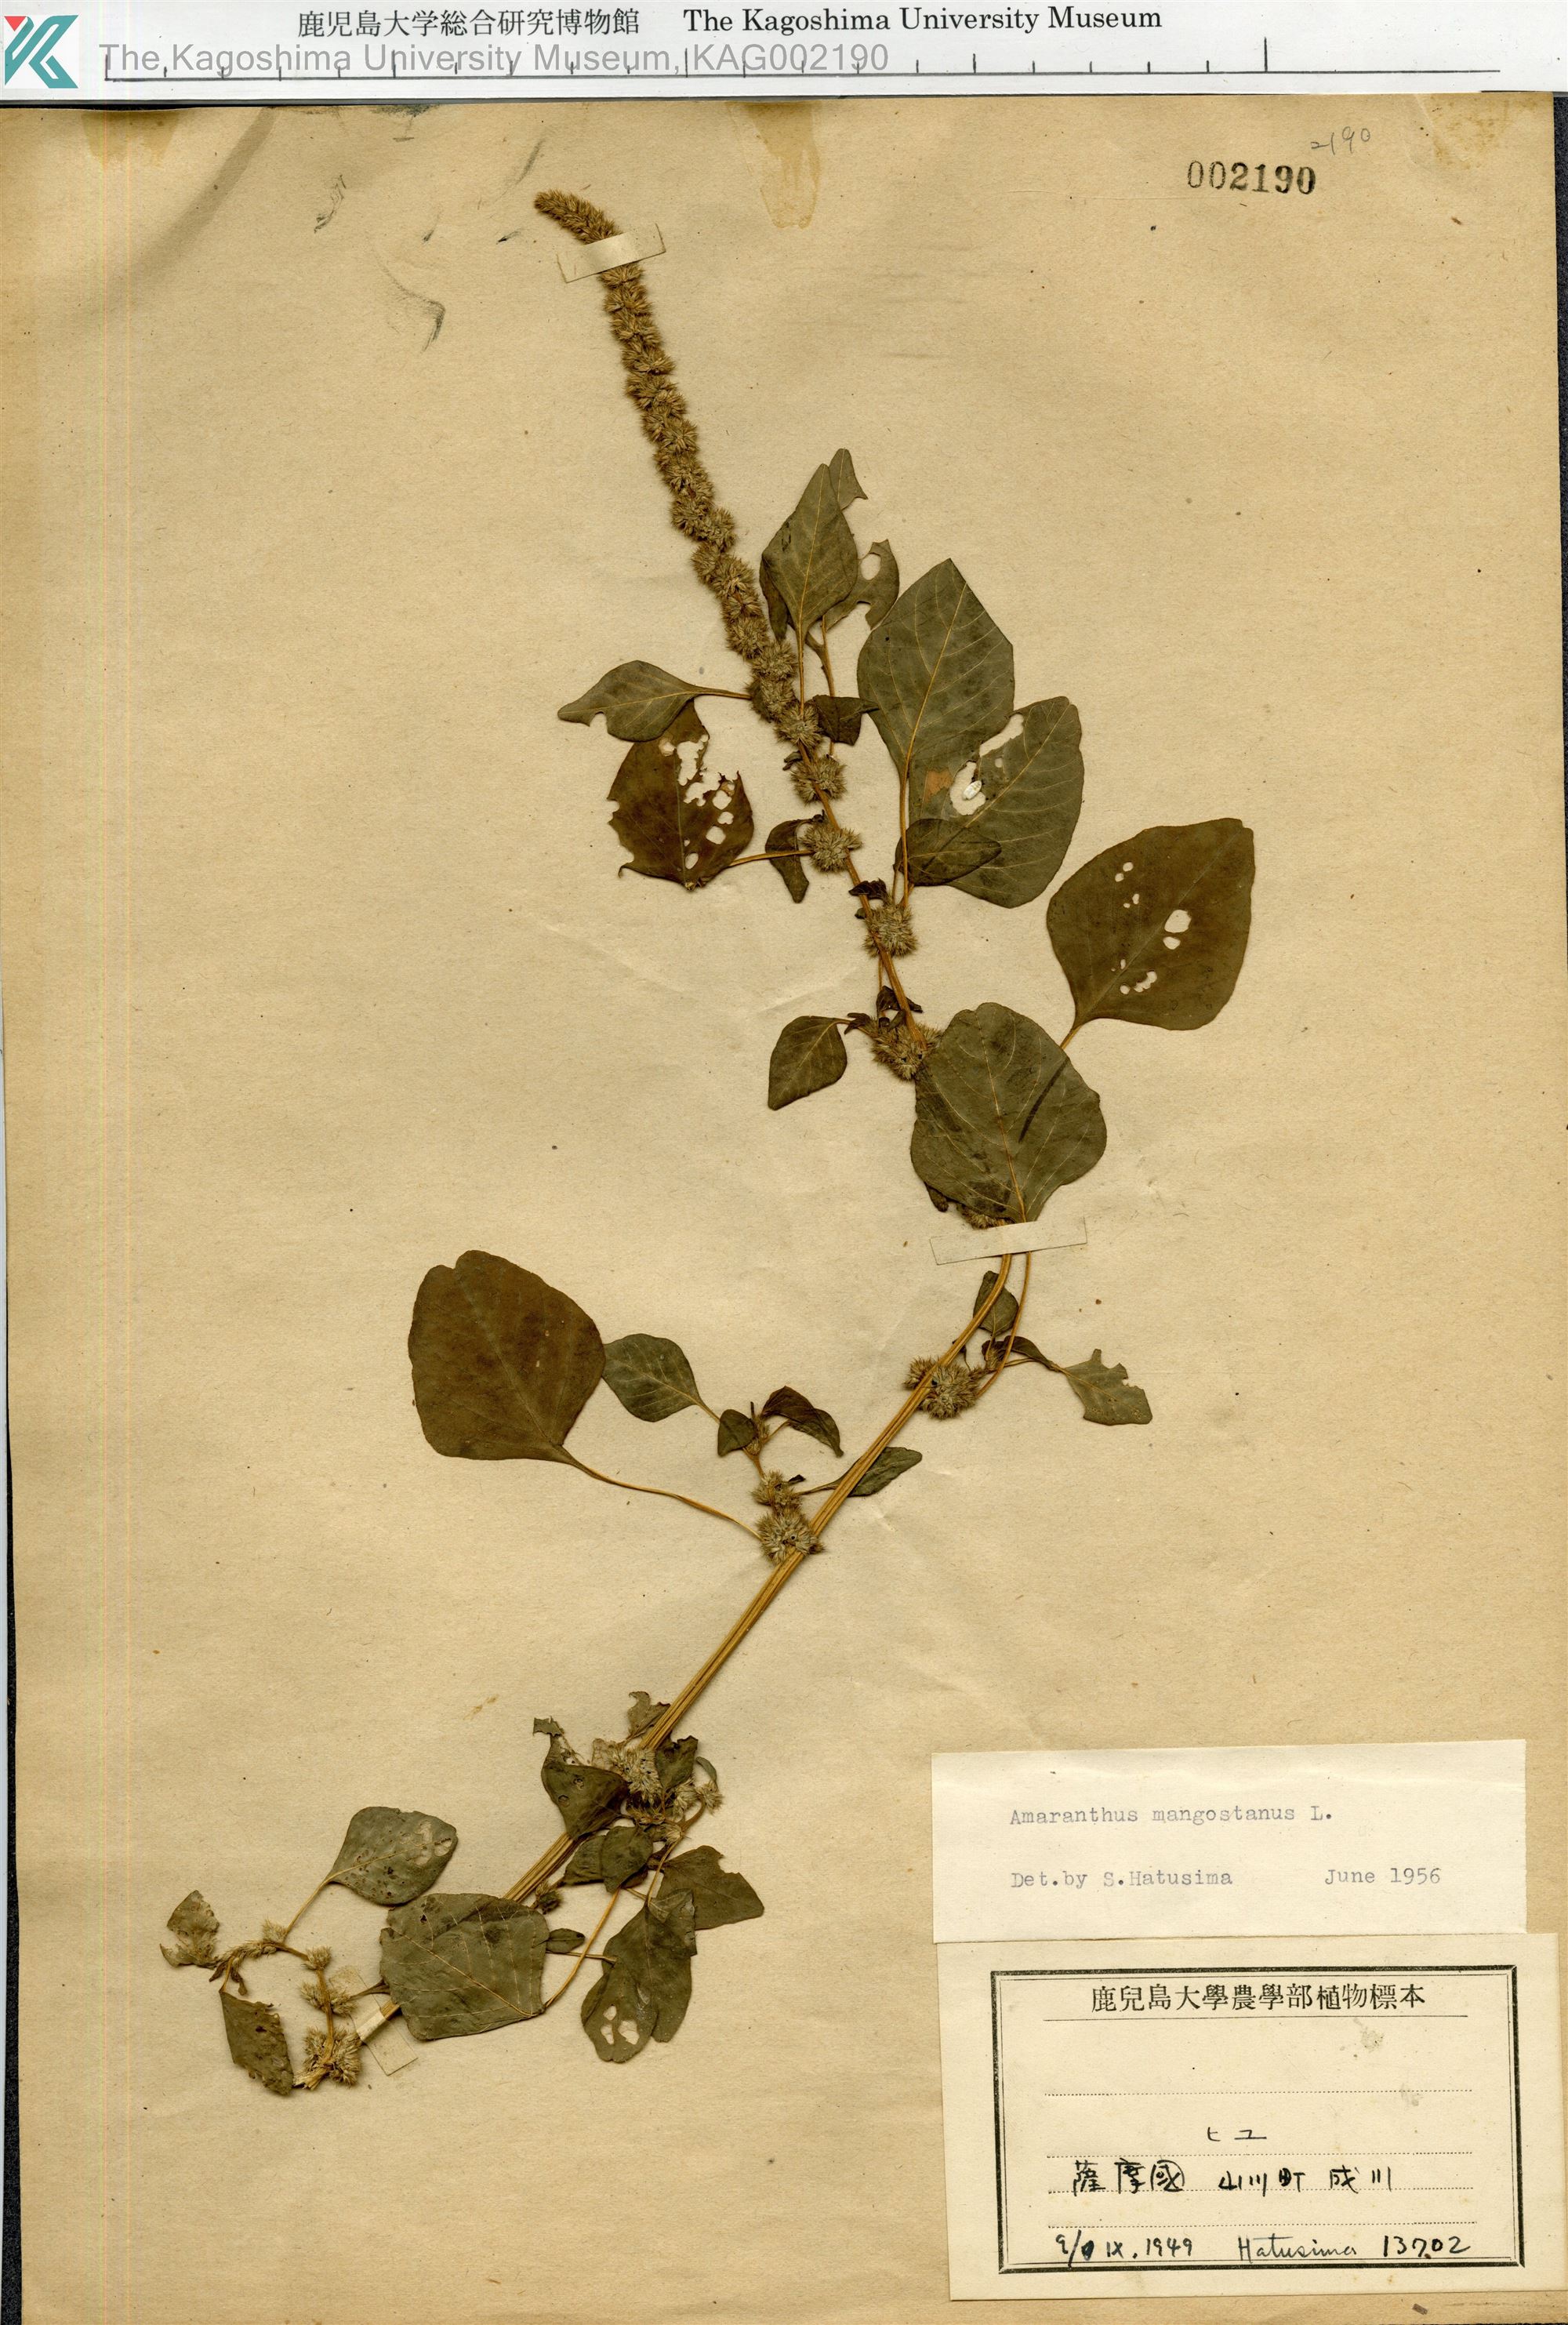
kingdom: Plantae
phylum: Tracheophyta
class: Magnoliopsida
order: Caryophyllales
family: Amaranthaceae
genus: Amaranthus
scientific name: Amaranthus tricolor
